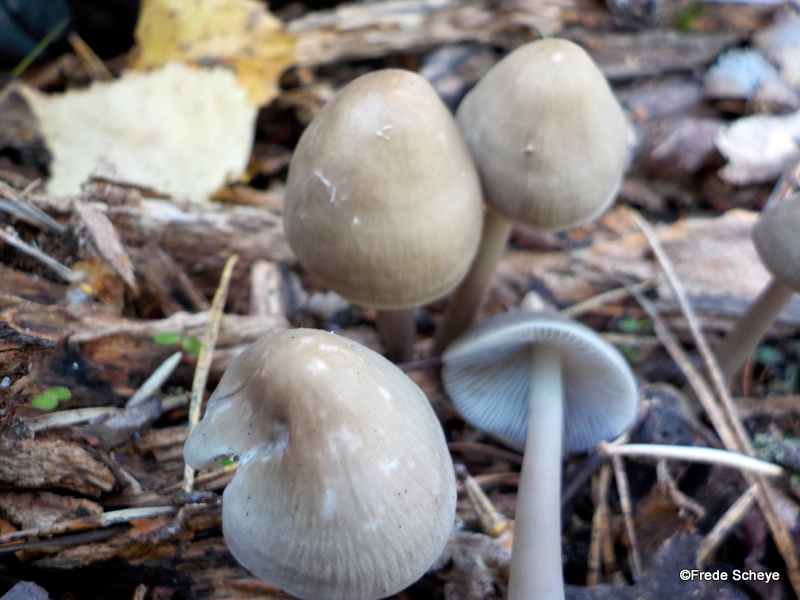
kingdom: Fungi
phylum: Basidiomycota
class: Agaricomycetes
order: Agaricales
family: Mycenaceae
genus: Mycena
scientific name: Mycena galericulata
